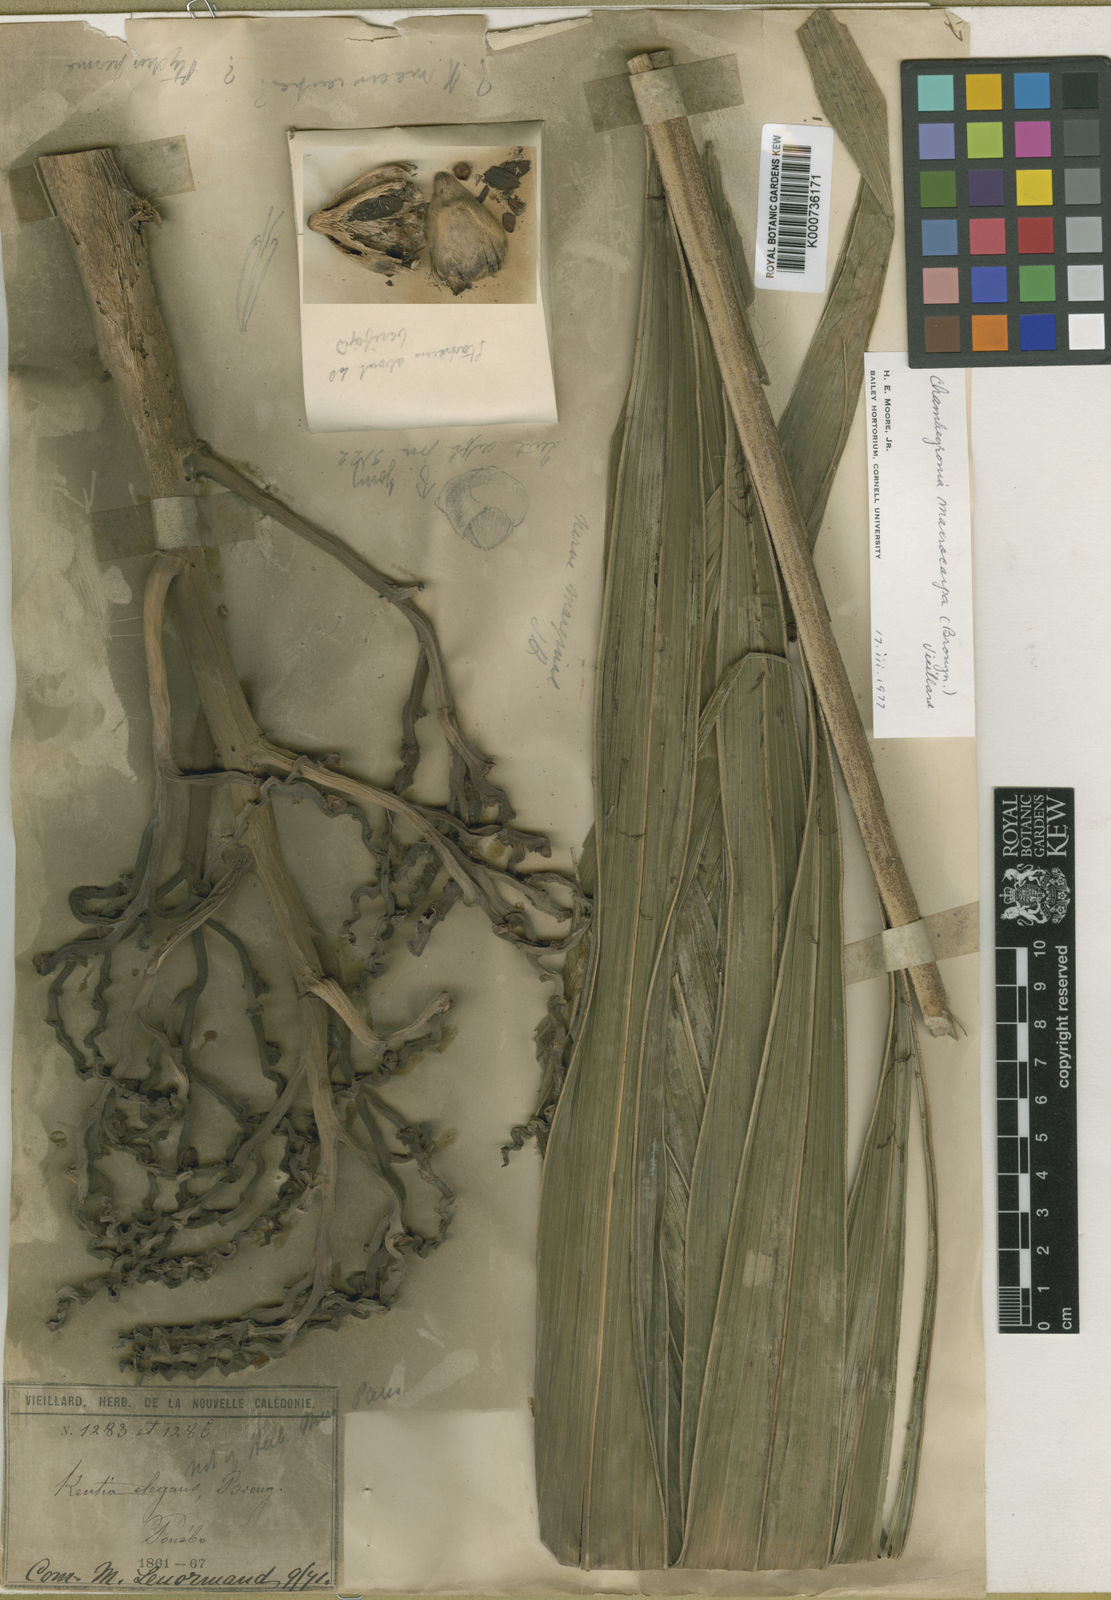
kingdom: Plantae
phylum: Tracheophyta
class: Liliopsida
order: Arecales
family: Arecaceae
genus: Cyphophoenix
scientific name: Cyphophoenix elegans
